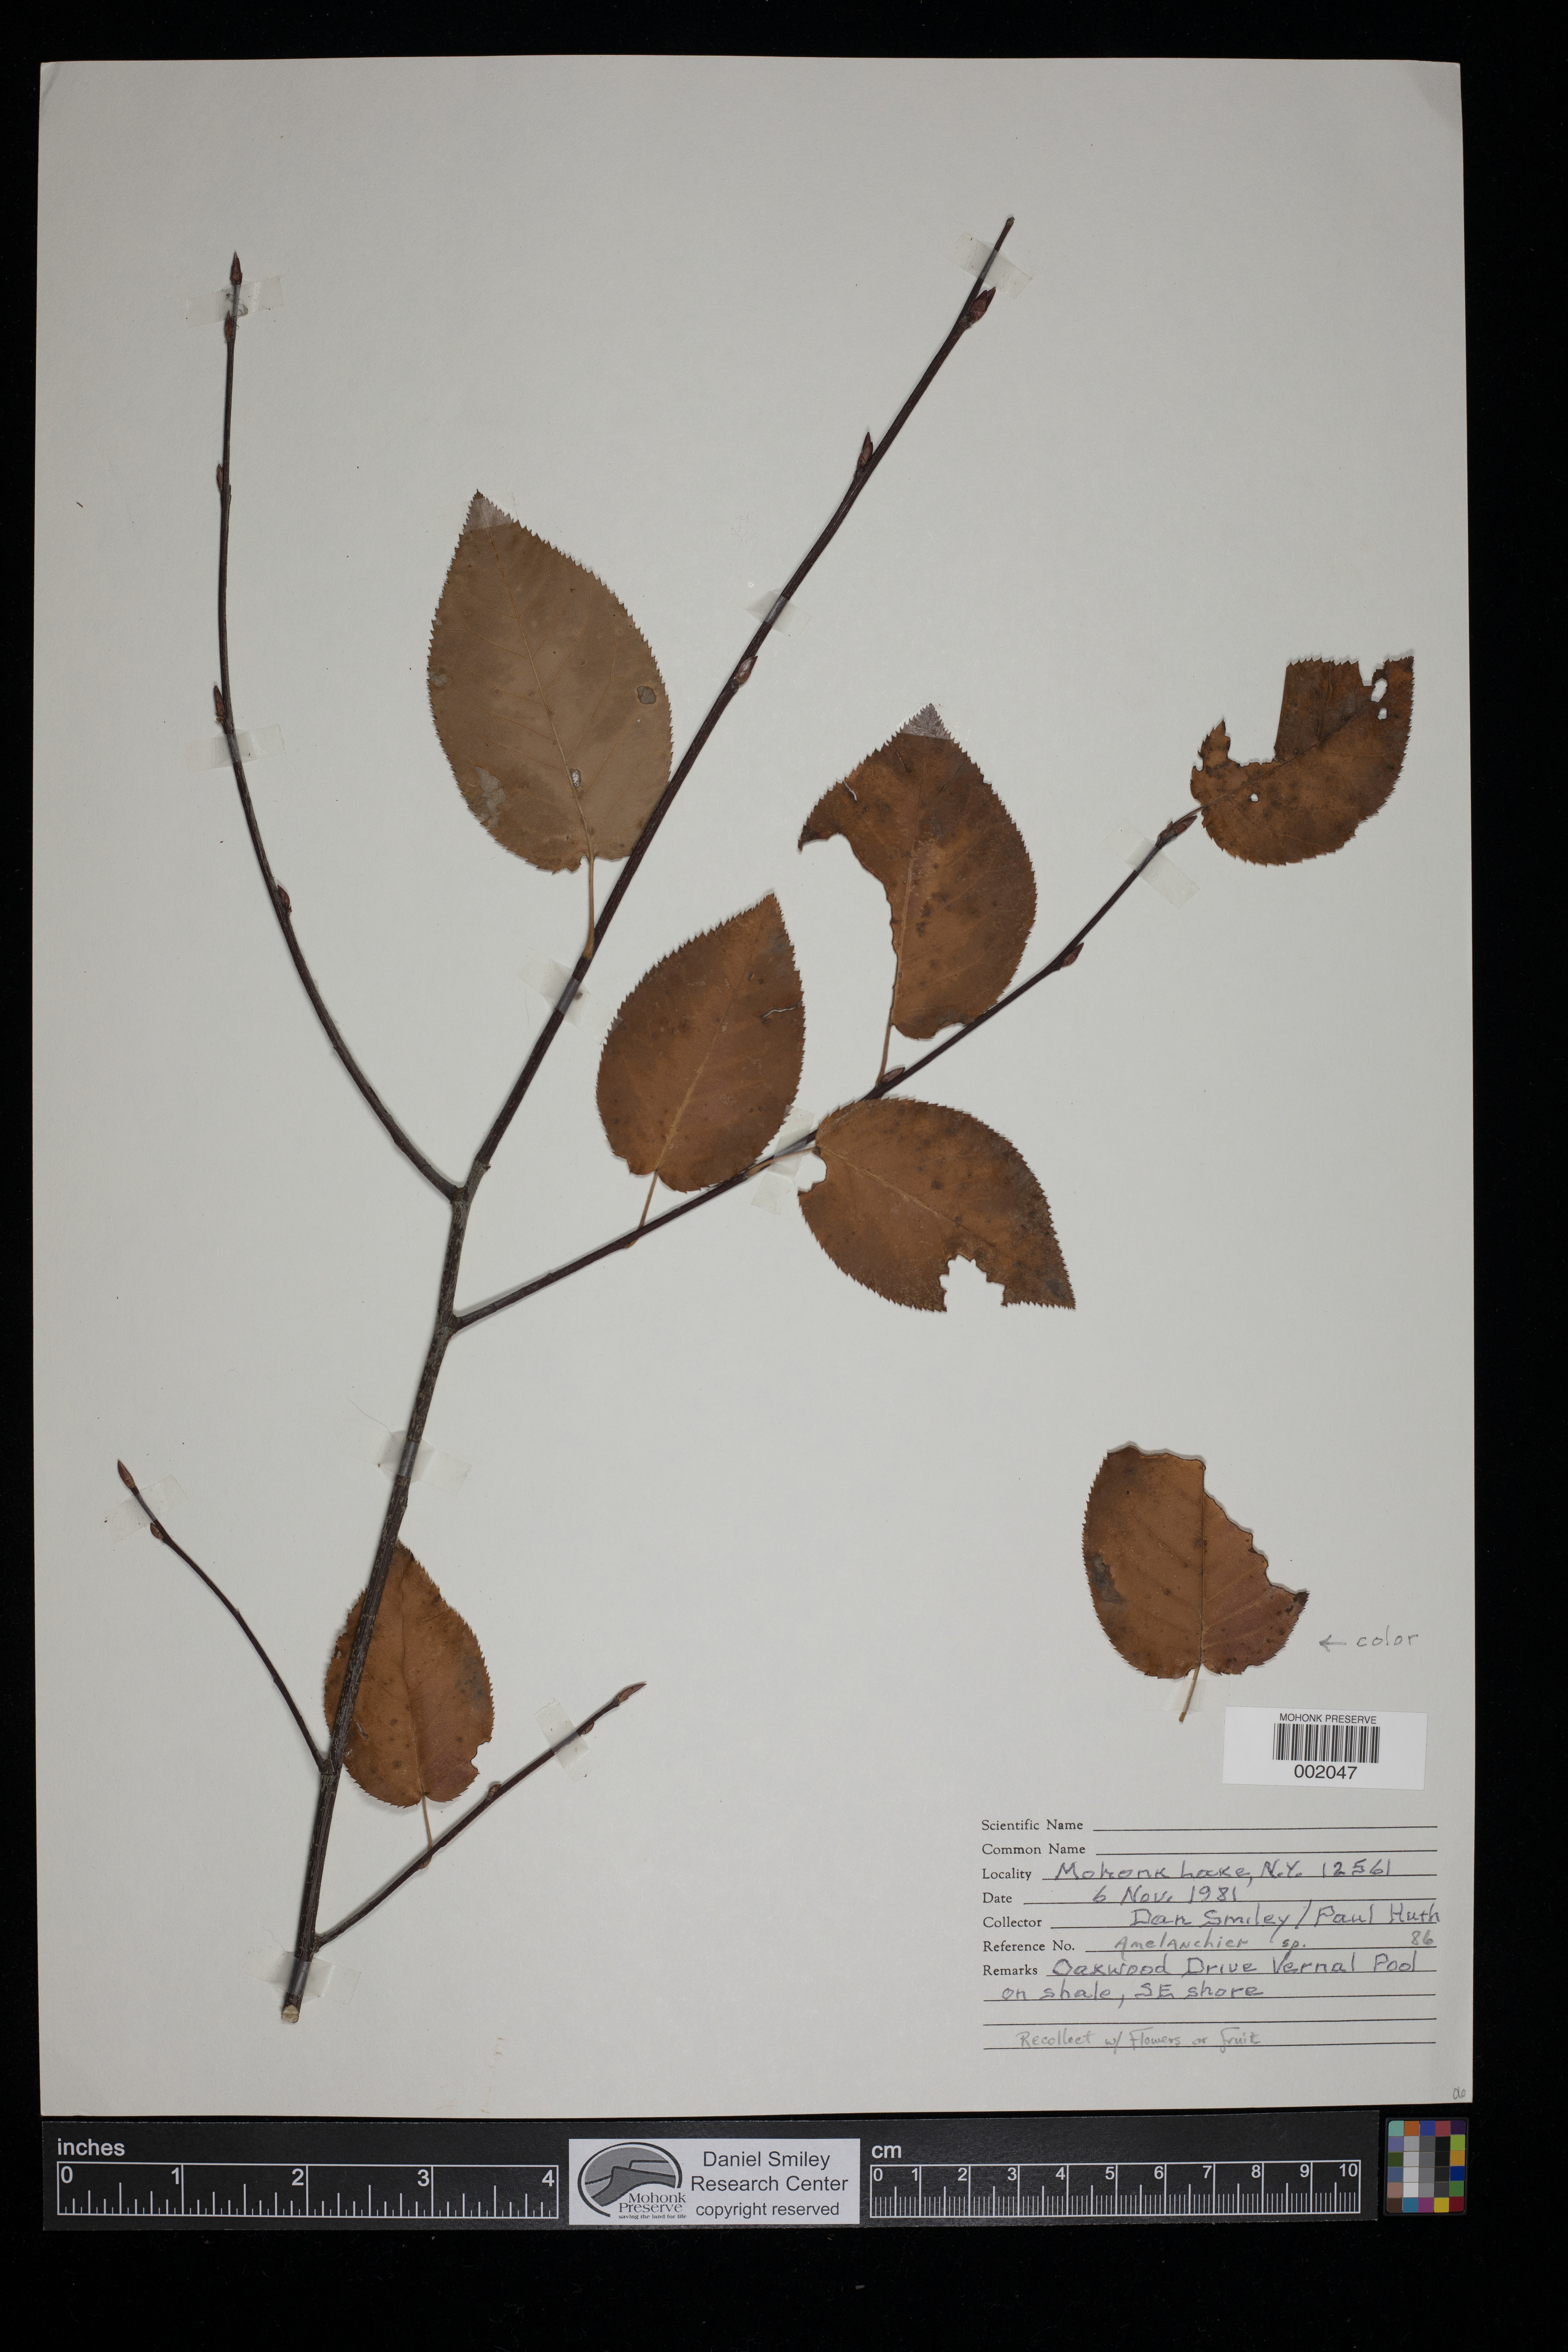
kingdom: Plantae
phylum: Tracheophyta
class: Magnoliopsida
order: Rosales
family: Rosaceae
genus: Amelanchier
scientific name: Amelanchier
